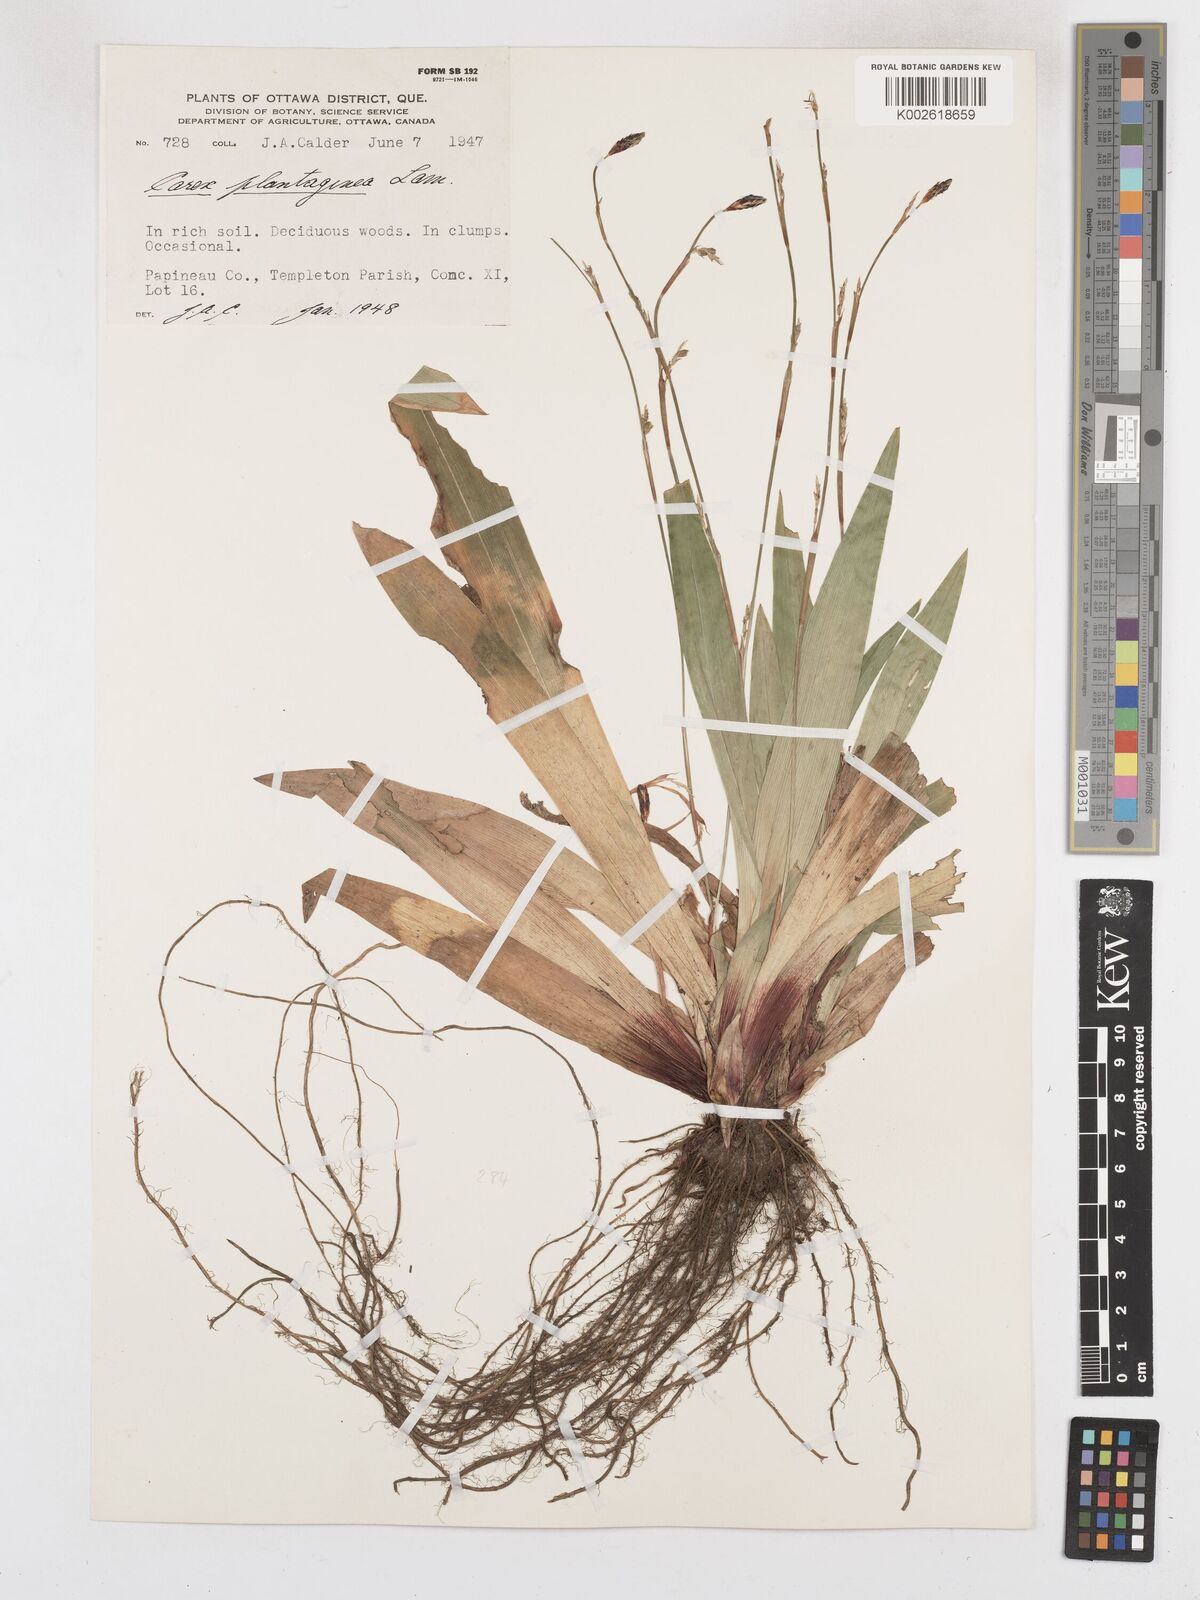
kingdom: Plantae
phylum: Tracheophyta
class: Liliopsida
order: Poales
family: Cyperaceae
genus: Carex
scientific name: Carex plantaginea
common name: Plantain-leaved sedge
